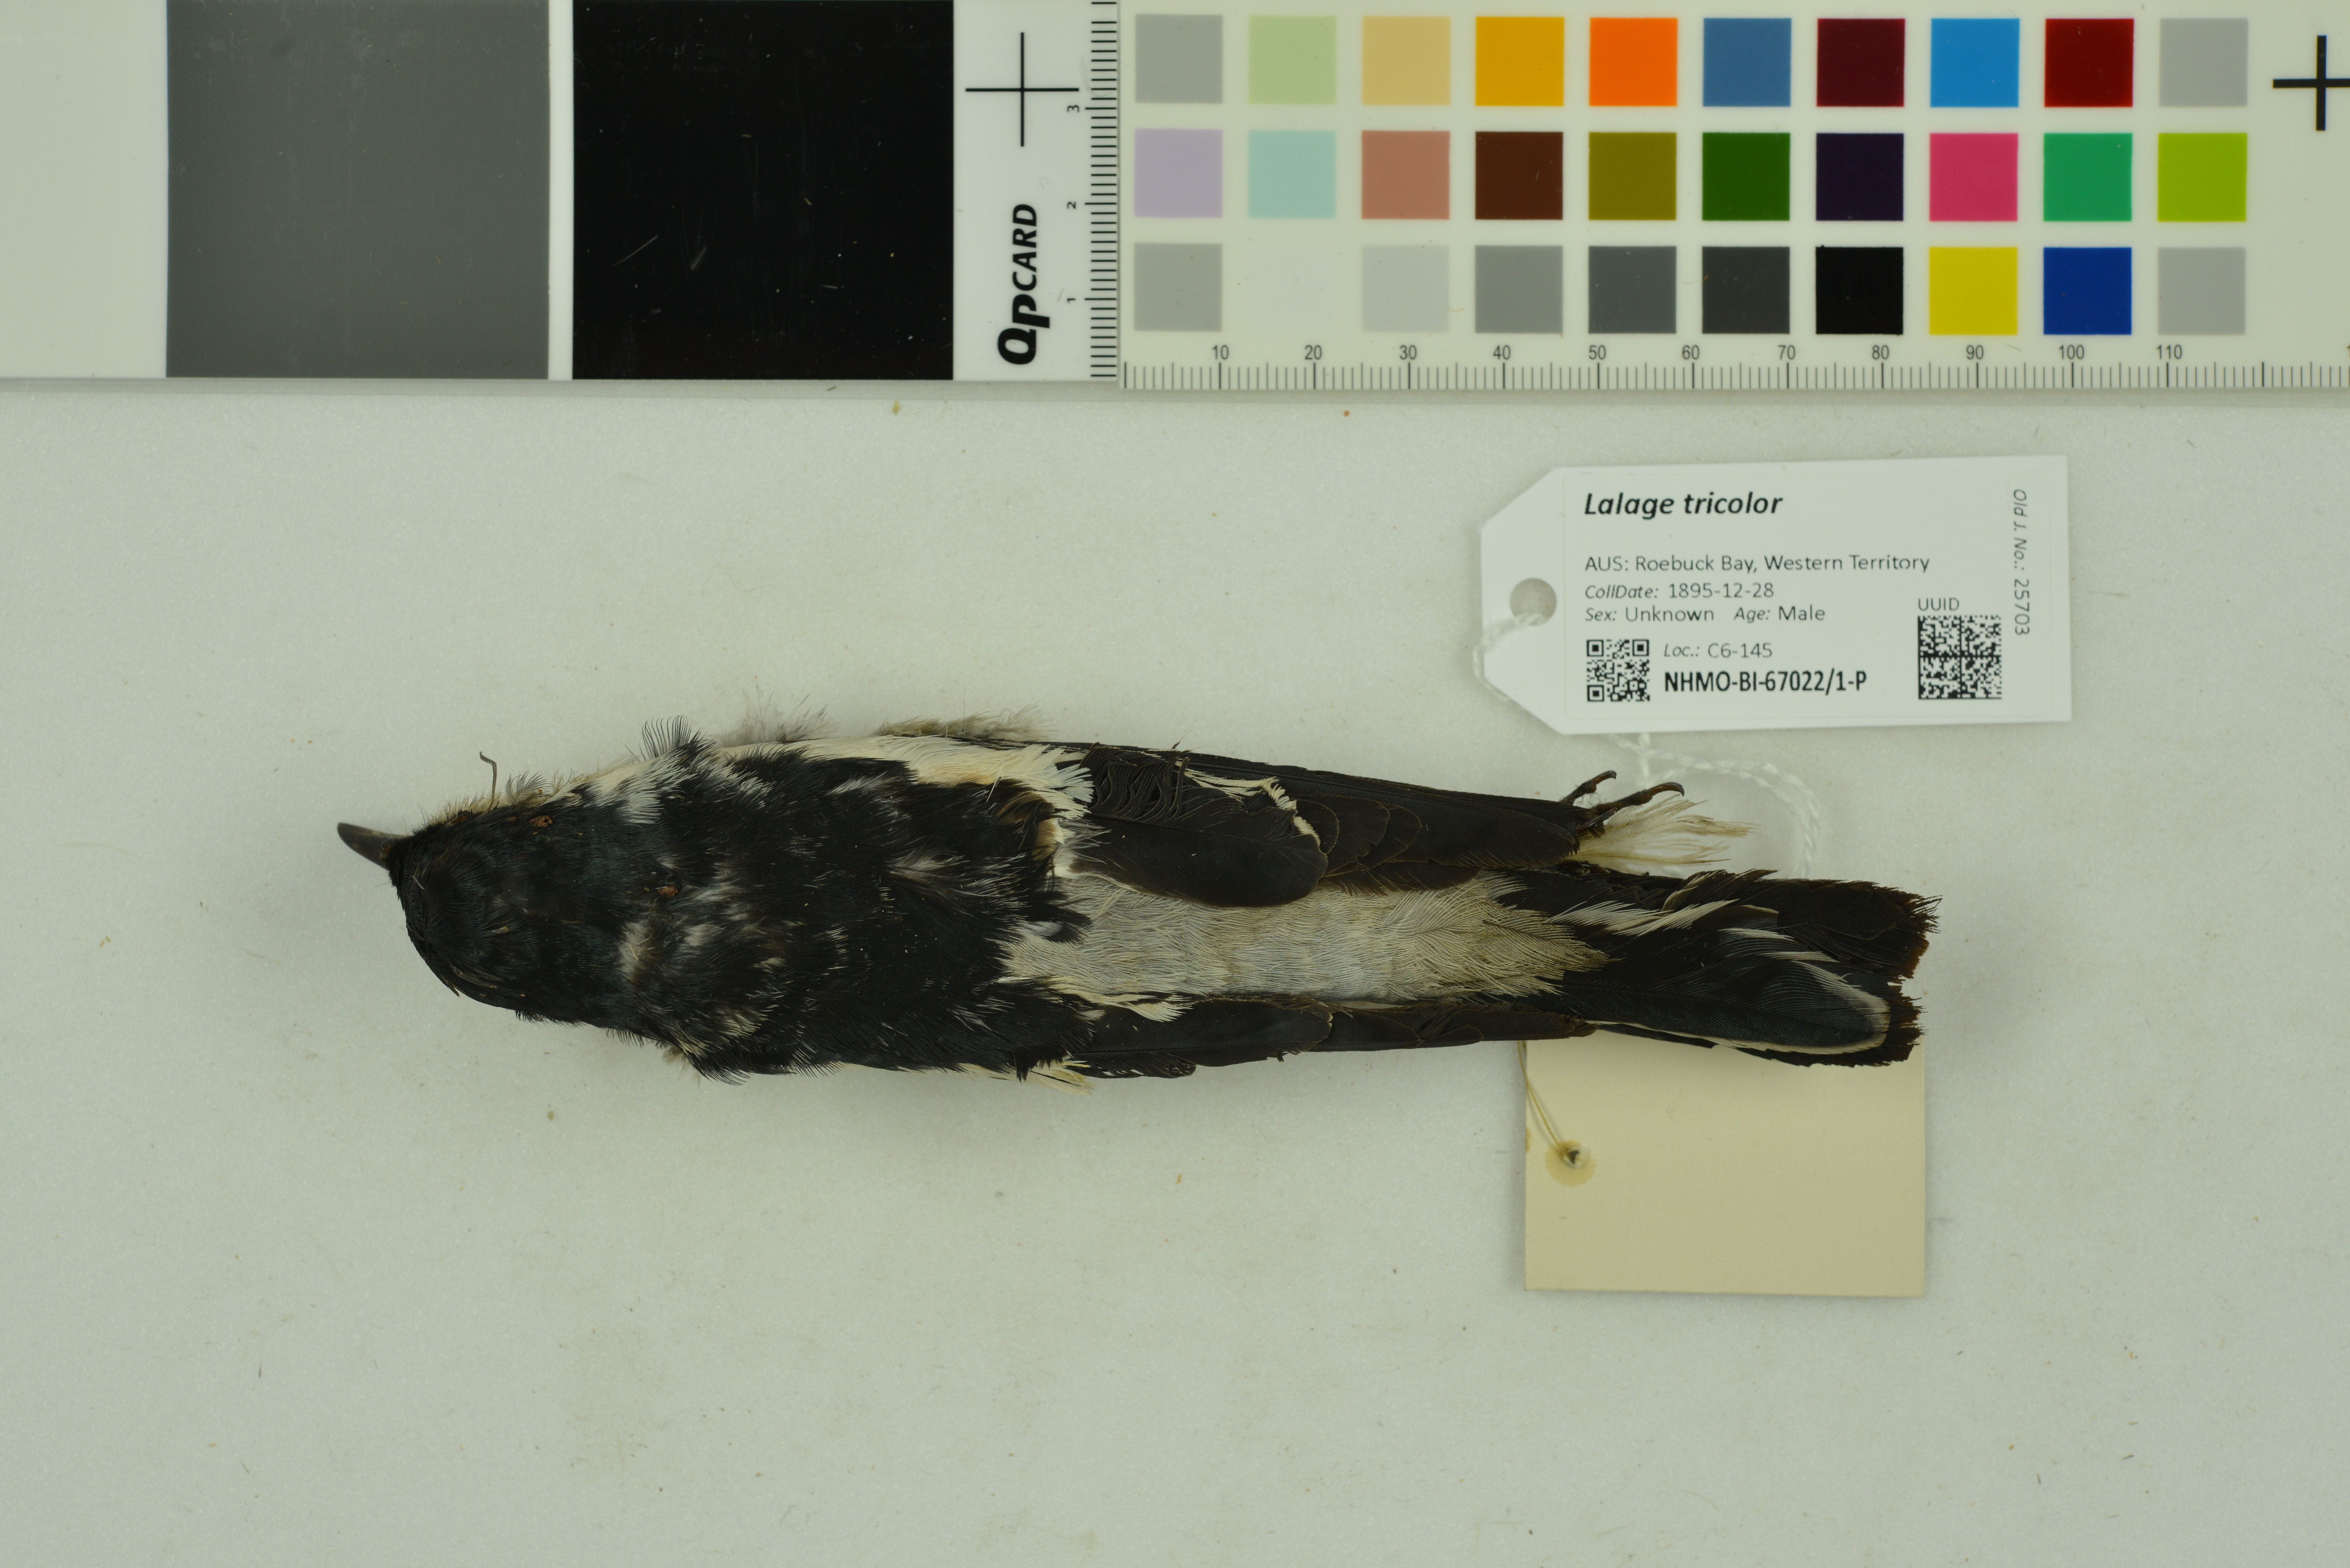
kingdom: Animalia
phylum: Chordata
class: Aves
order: Passeriformes
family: Campephagidae
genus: Lalage
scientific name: Lalage tricolor
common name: White-winged triller
